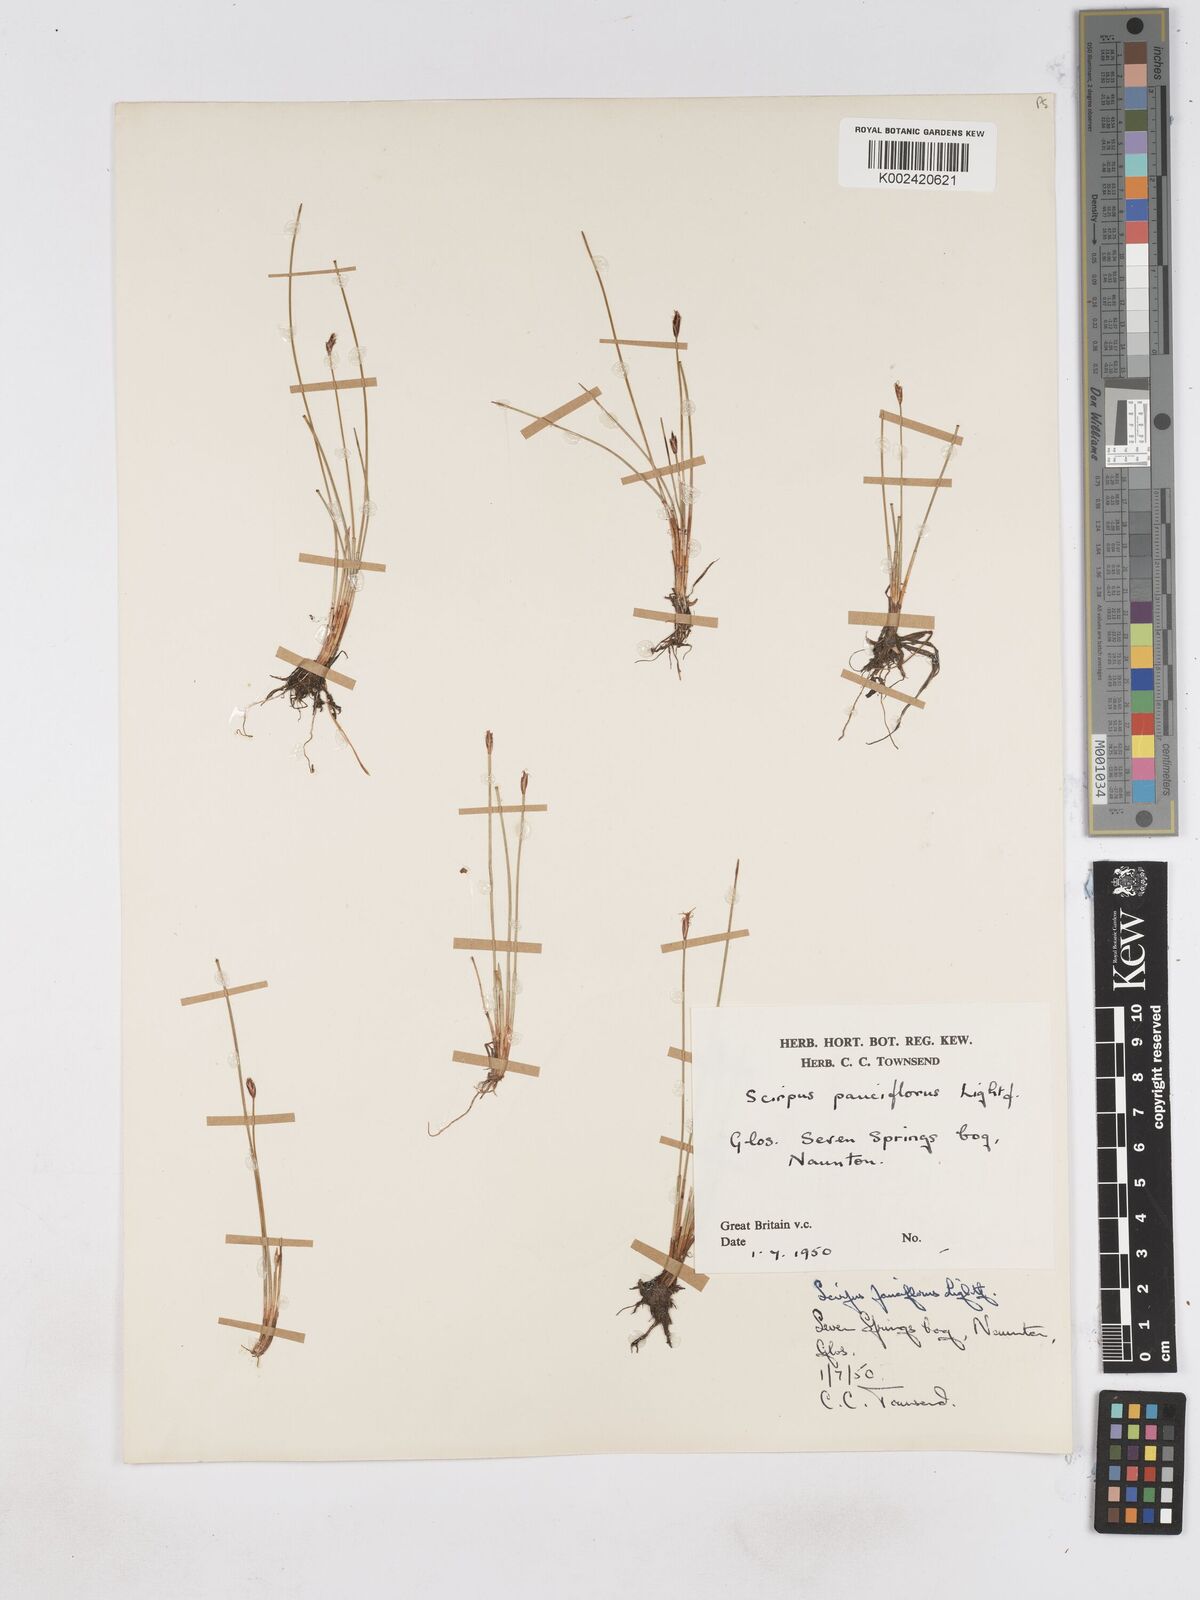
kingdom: Plantae
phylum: Tracheophyta
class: Liliopsida
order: Poales
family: Cyperaceae
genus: Eleocharis
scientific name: Eleocharis quinqueflora
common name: Few-flowered spike-rush
